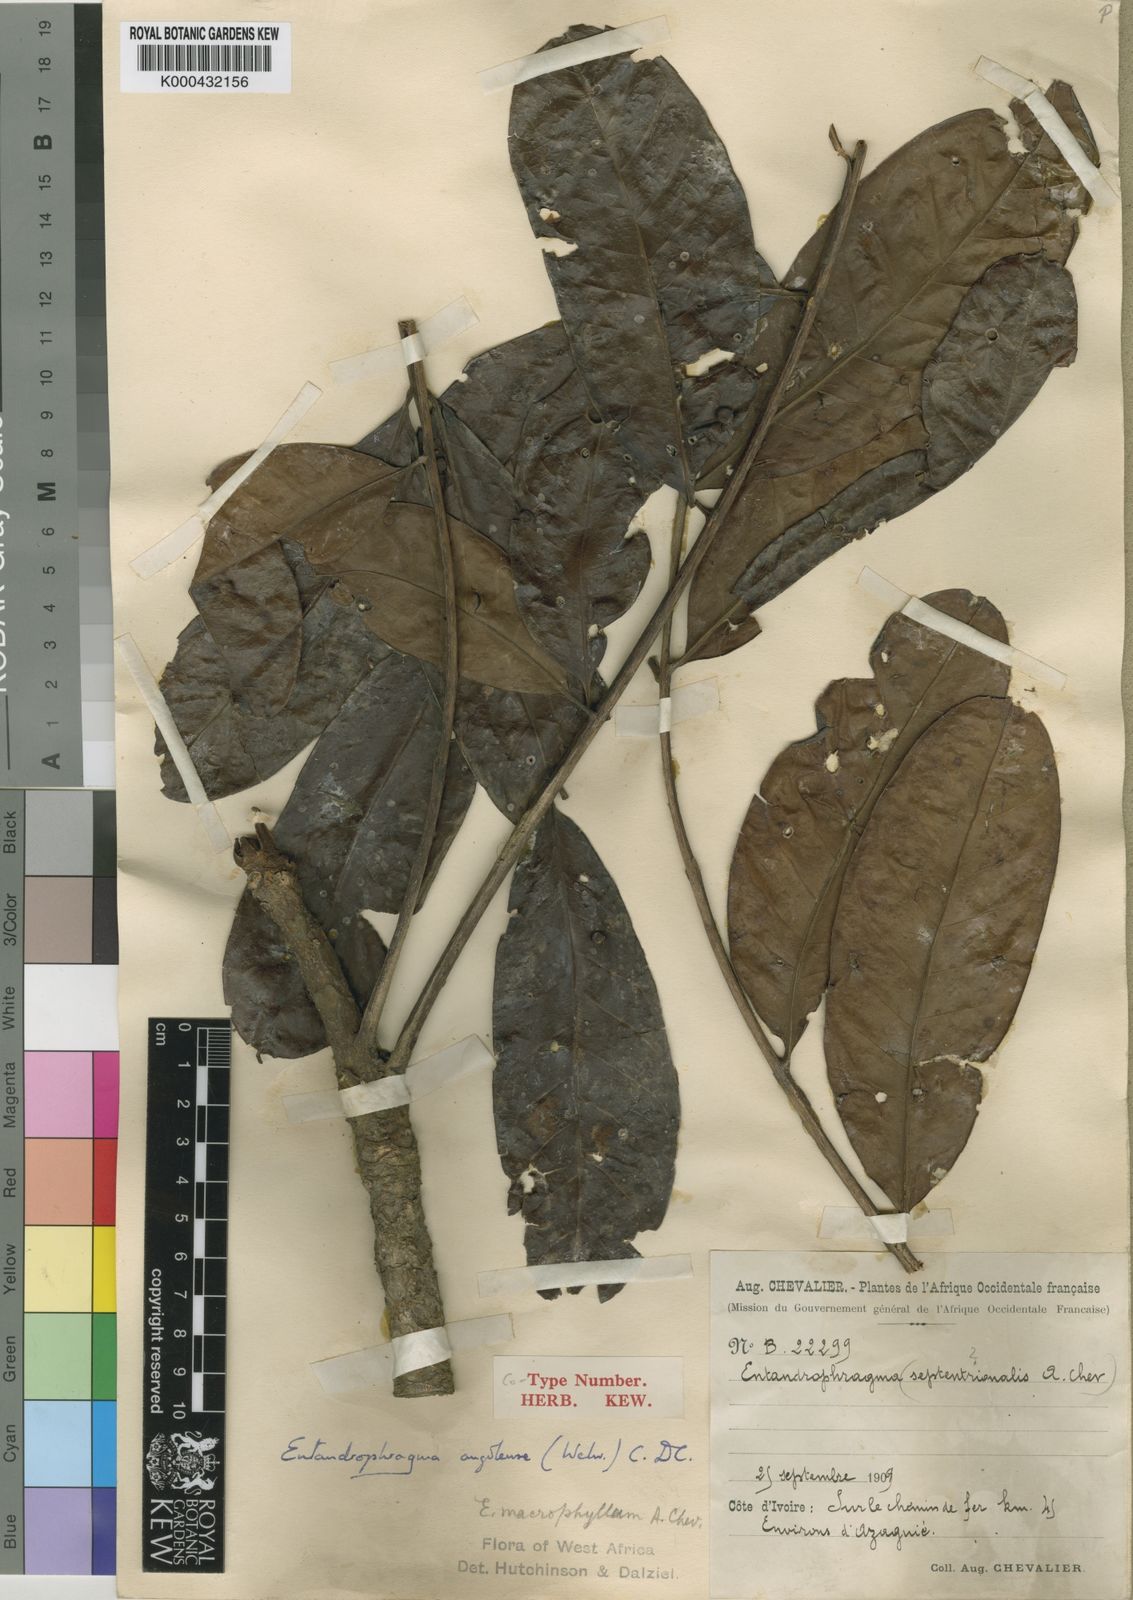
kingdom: Plantae
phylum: Tracheophyta
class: Magnoliopsida
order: Sapindales
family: Meliaceae
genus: Entandrophragma
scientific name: Entandrophragma
